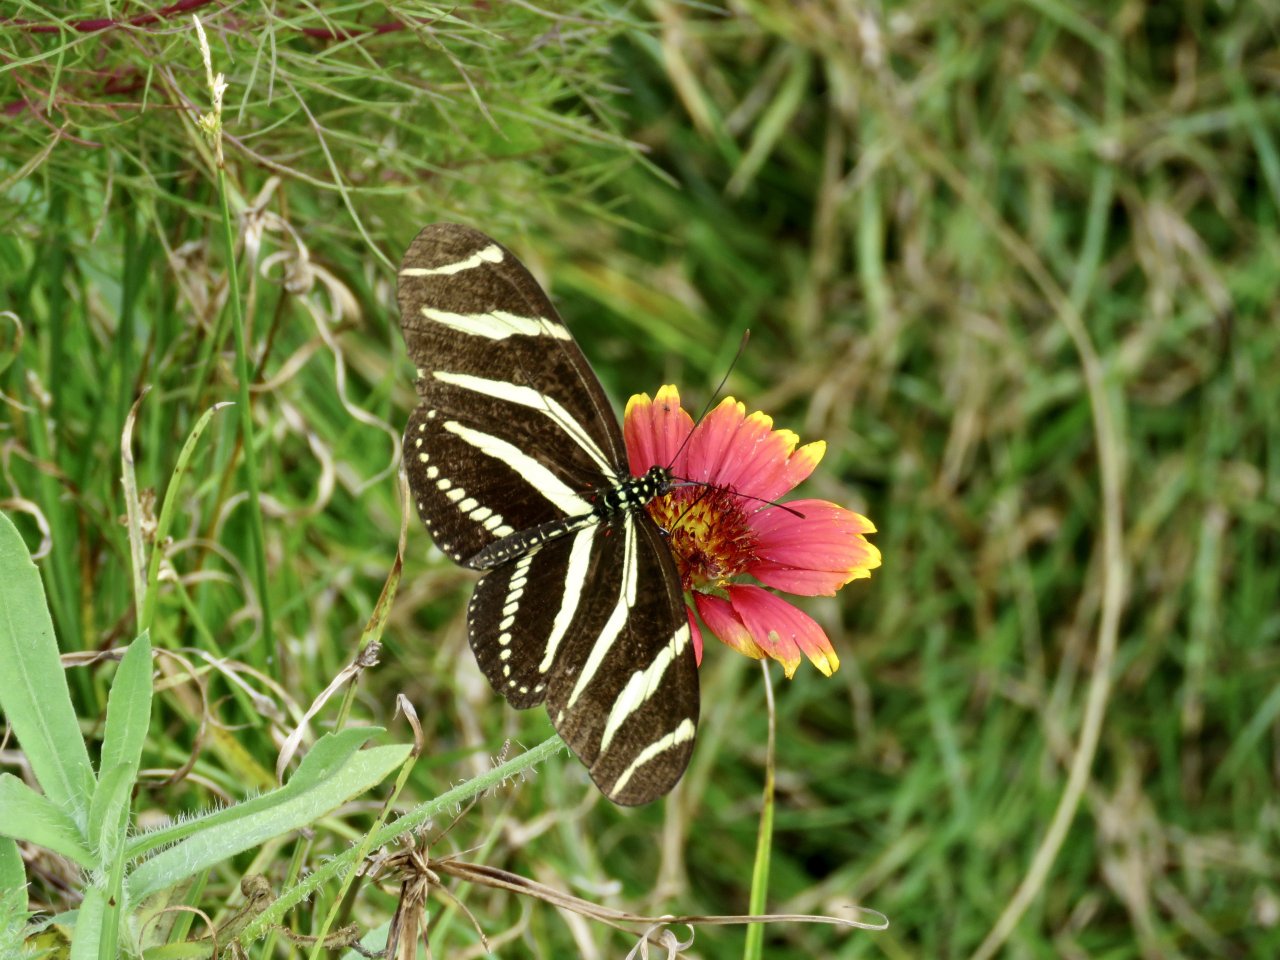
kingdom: Animalia
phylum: Arthropoda
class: Insecta
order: Lepidoptera
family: Nymphalidae
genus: Heliconius
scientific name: Heliconius charithonia
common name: Zebra Longwing
